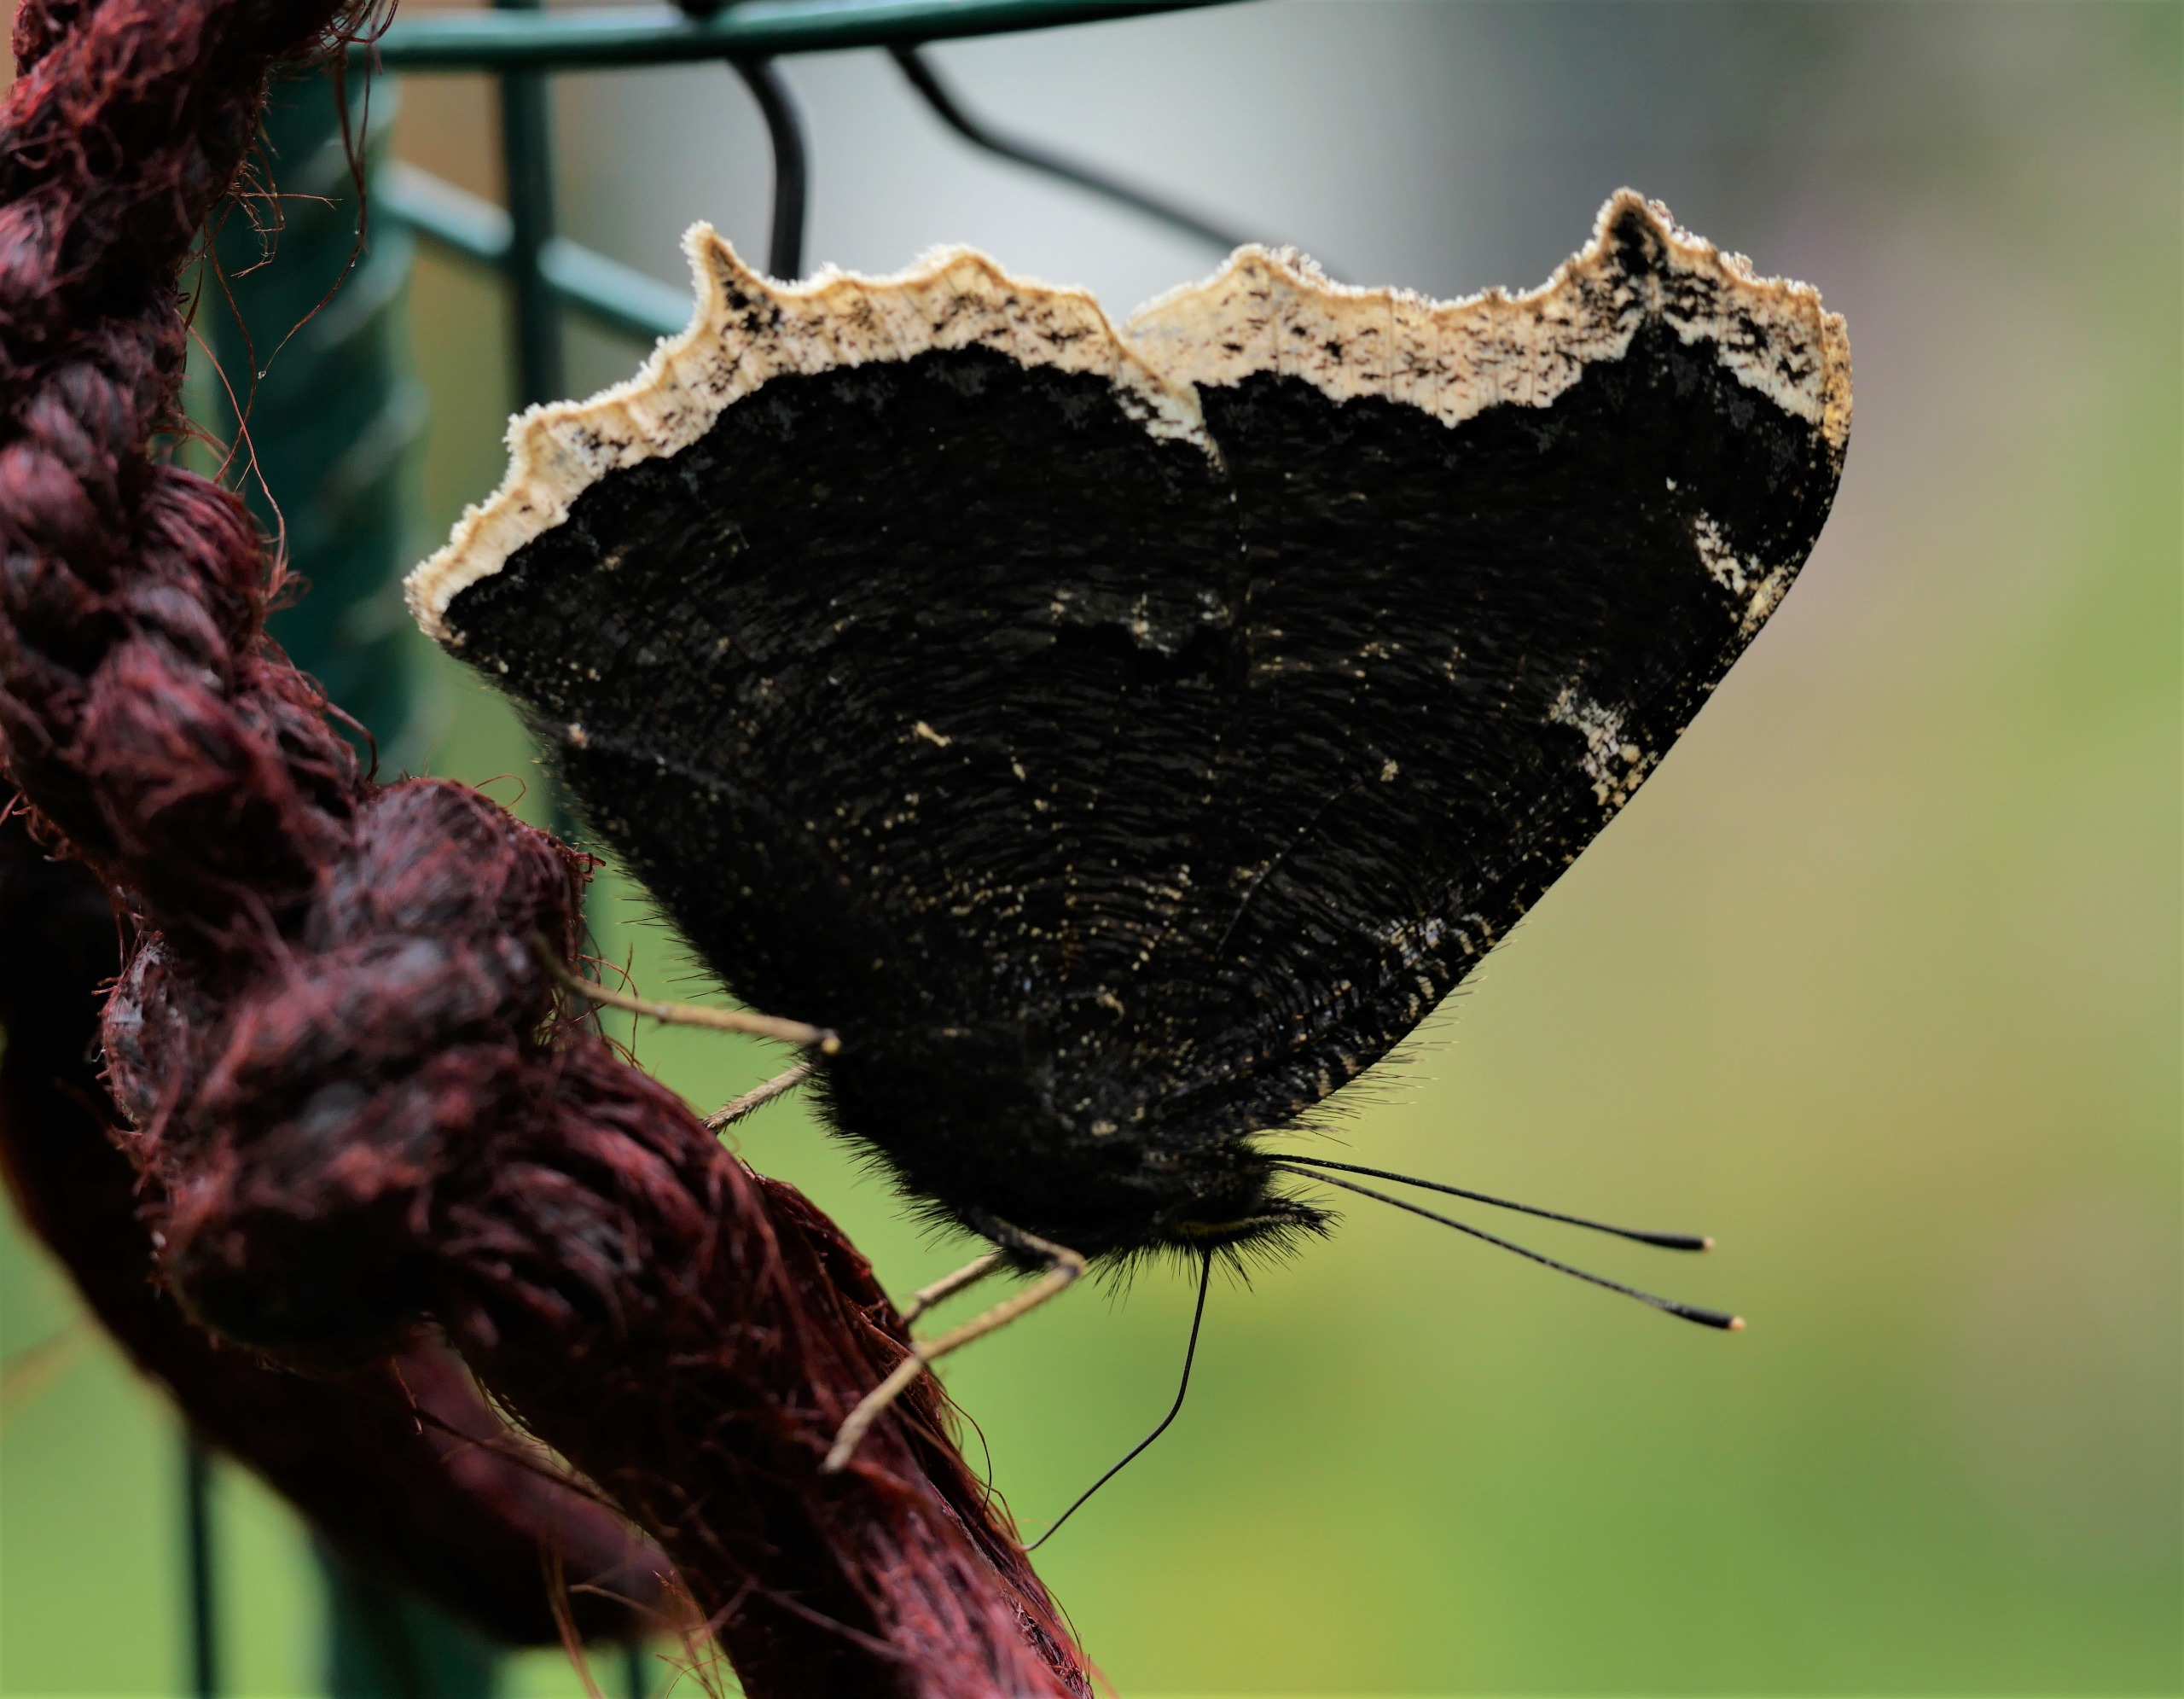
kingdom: Animalia
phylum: Arthropoda
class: Insecta
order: Lepidoptera
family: Nymphalidae
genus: Nymphalis
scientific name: Nymphalis antiopa
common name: Sørgekåbe
